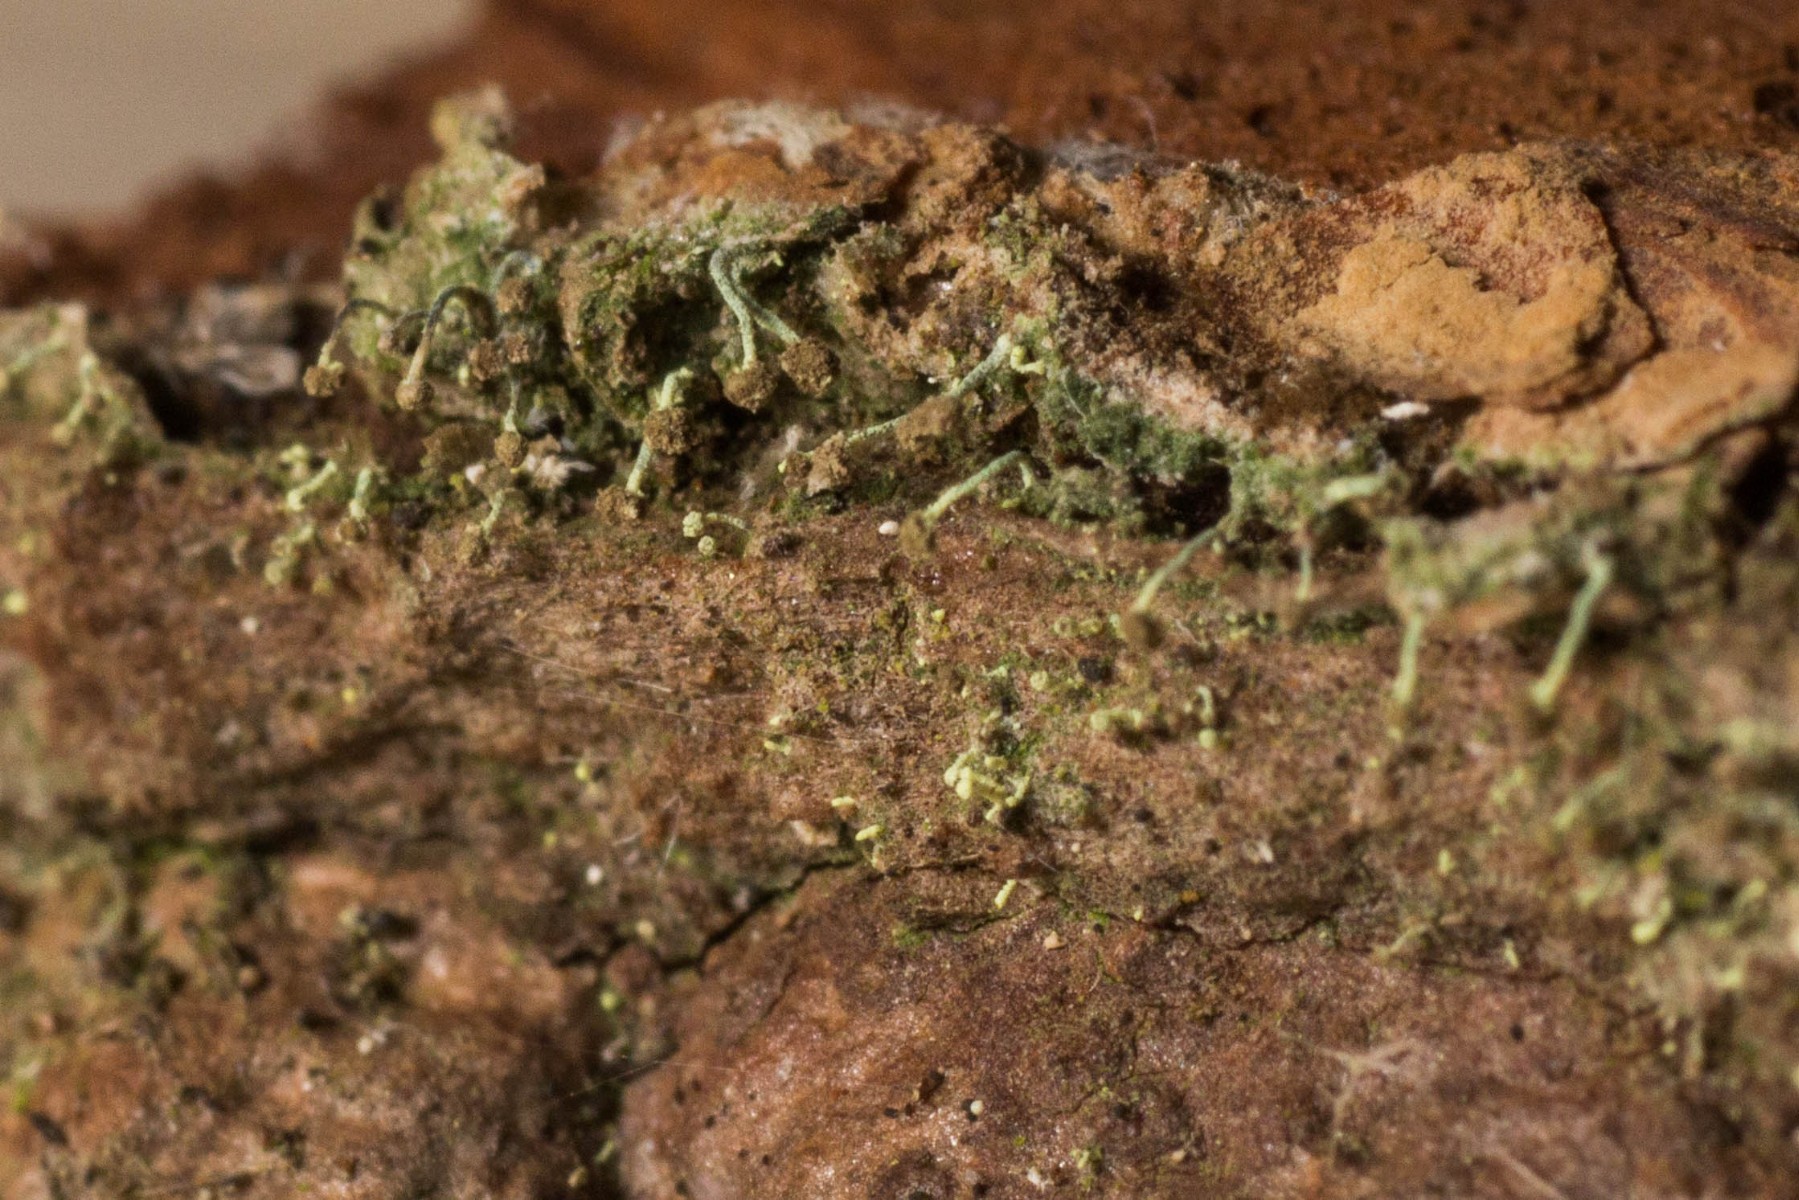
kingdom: Fungi
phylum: Ascomycota
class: Coniocybomycetes
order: Coniocybales
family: Coniocybaceae
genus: Chaenotheca
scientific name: Chaenotheca brachypoda
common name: gulgrøn knappenålslav
